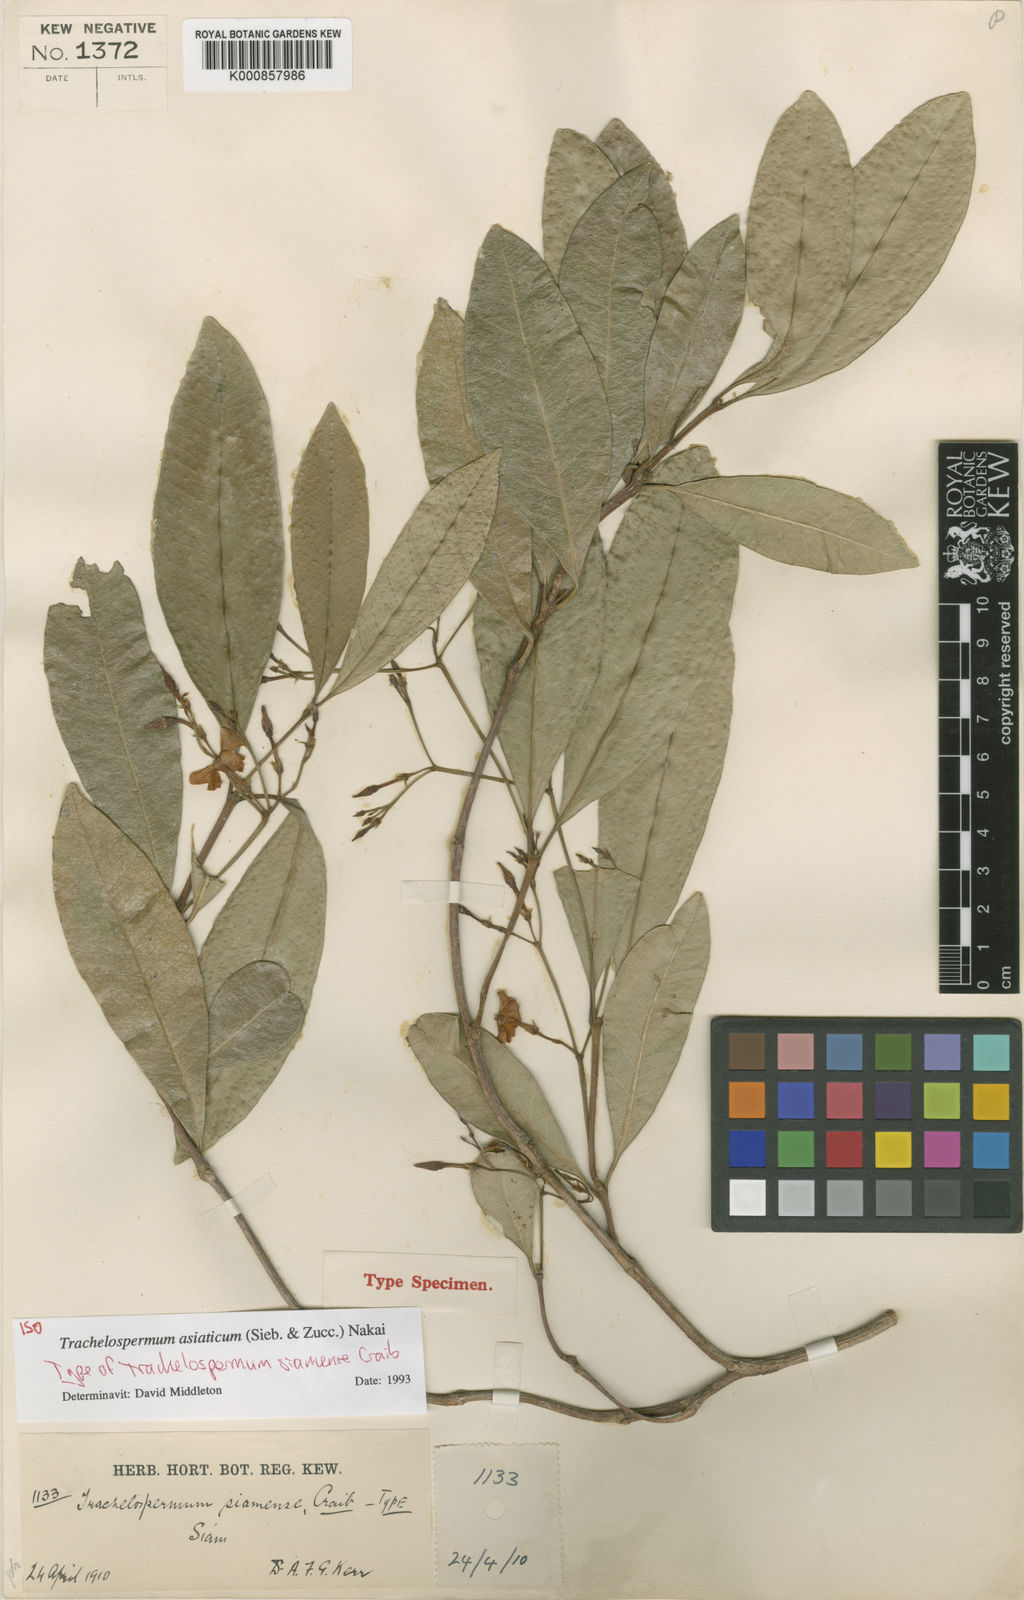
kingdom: Plantae
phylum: Tracheophyta
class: Magnoliopsida
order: Gentianales
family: Apocynaceae
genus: Trachelospermum
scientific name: Trachelospermum asiaticum
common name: Asiatic jasmine
